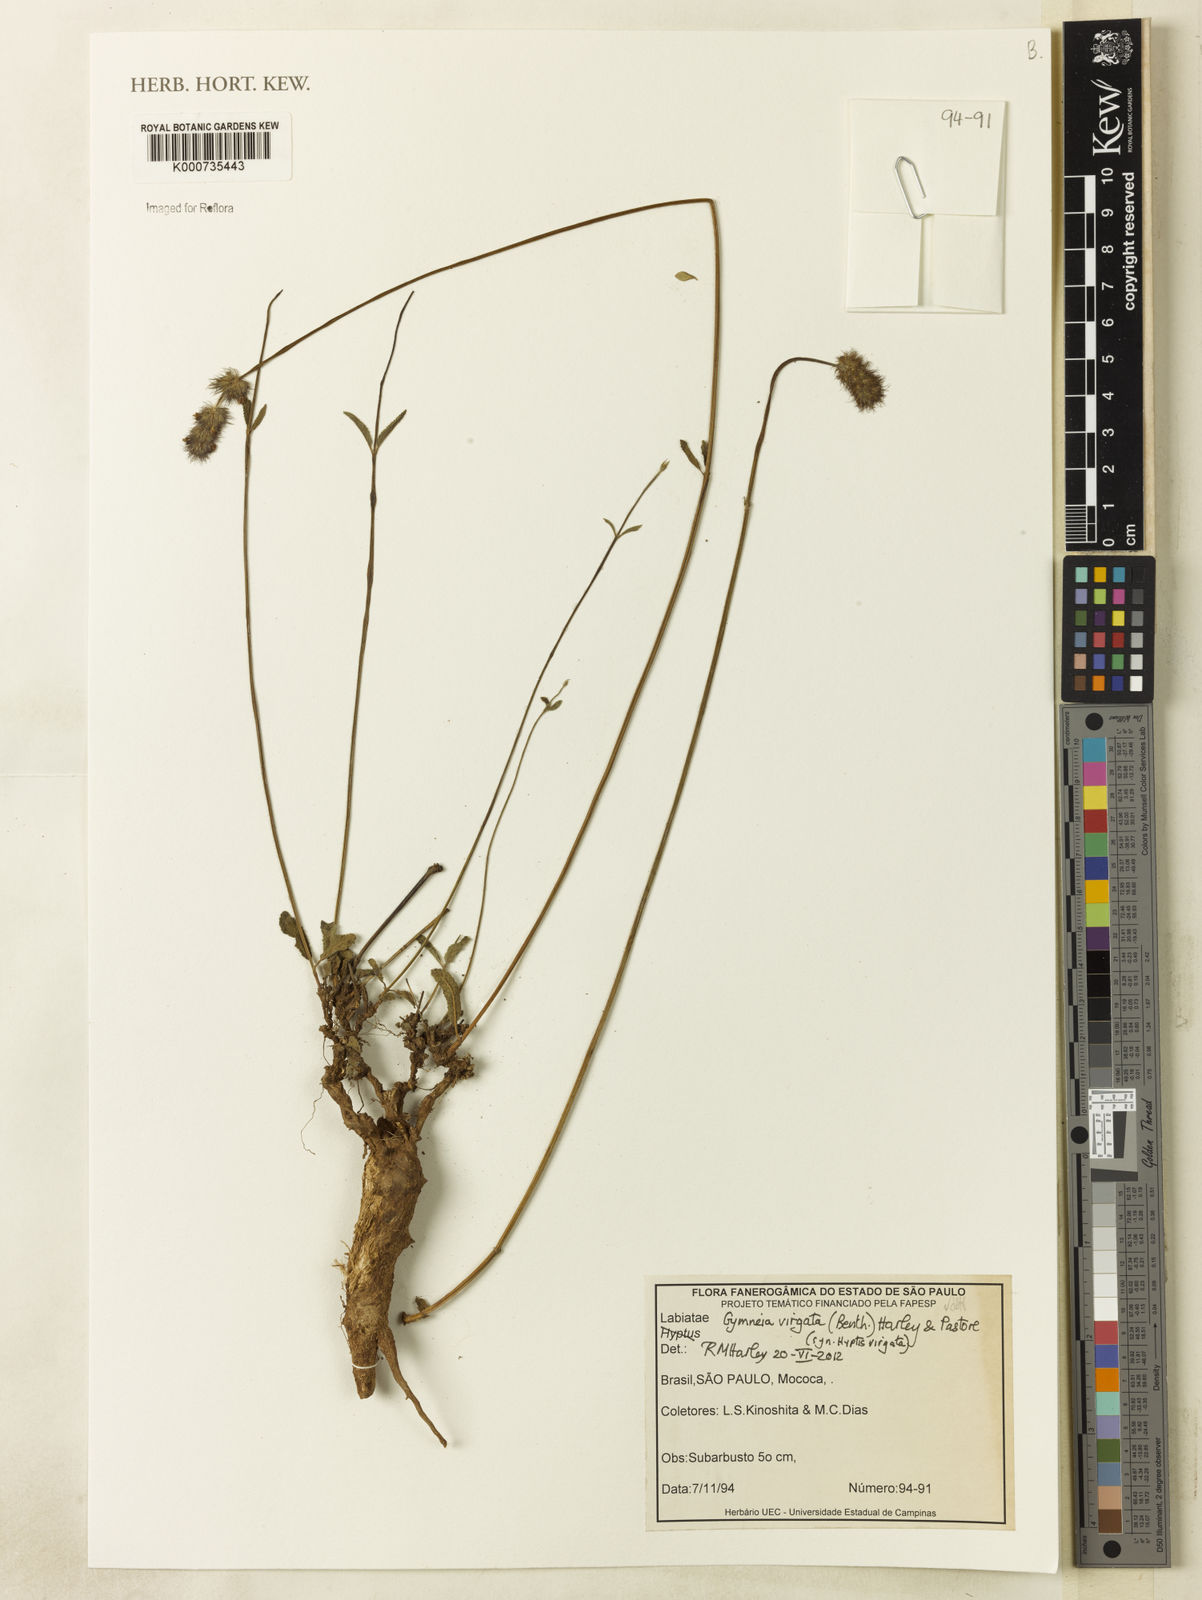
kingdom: Plantae
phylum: Tracheophyta
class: Magnoliopsida
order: Lamiales
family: Lamiaceae
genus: Gymneia
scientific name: Gymneia virgata
